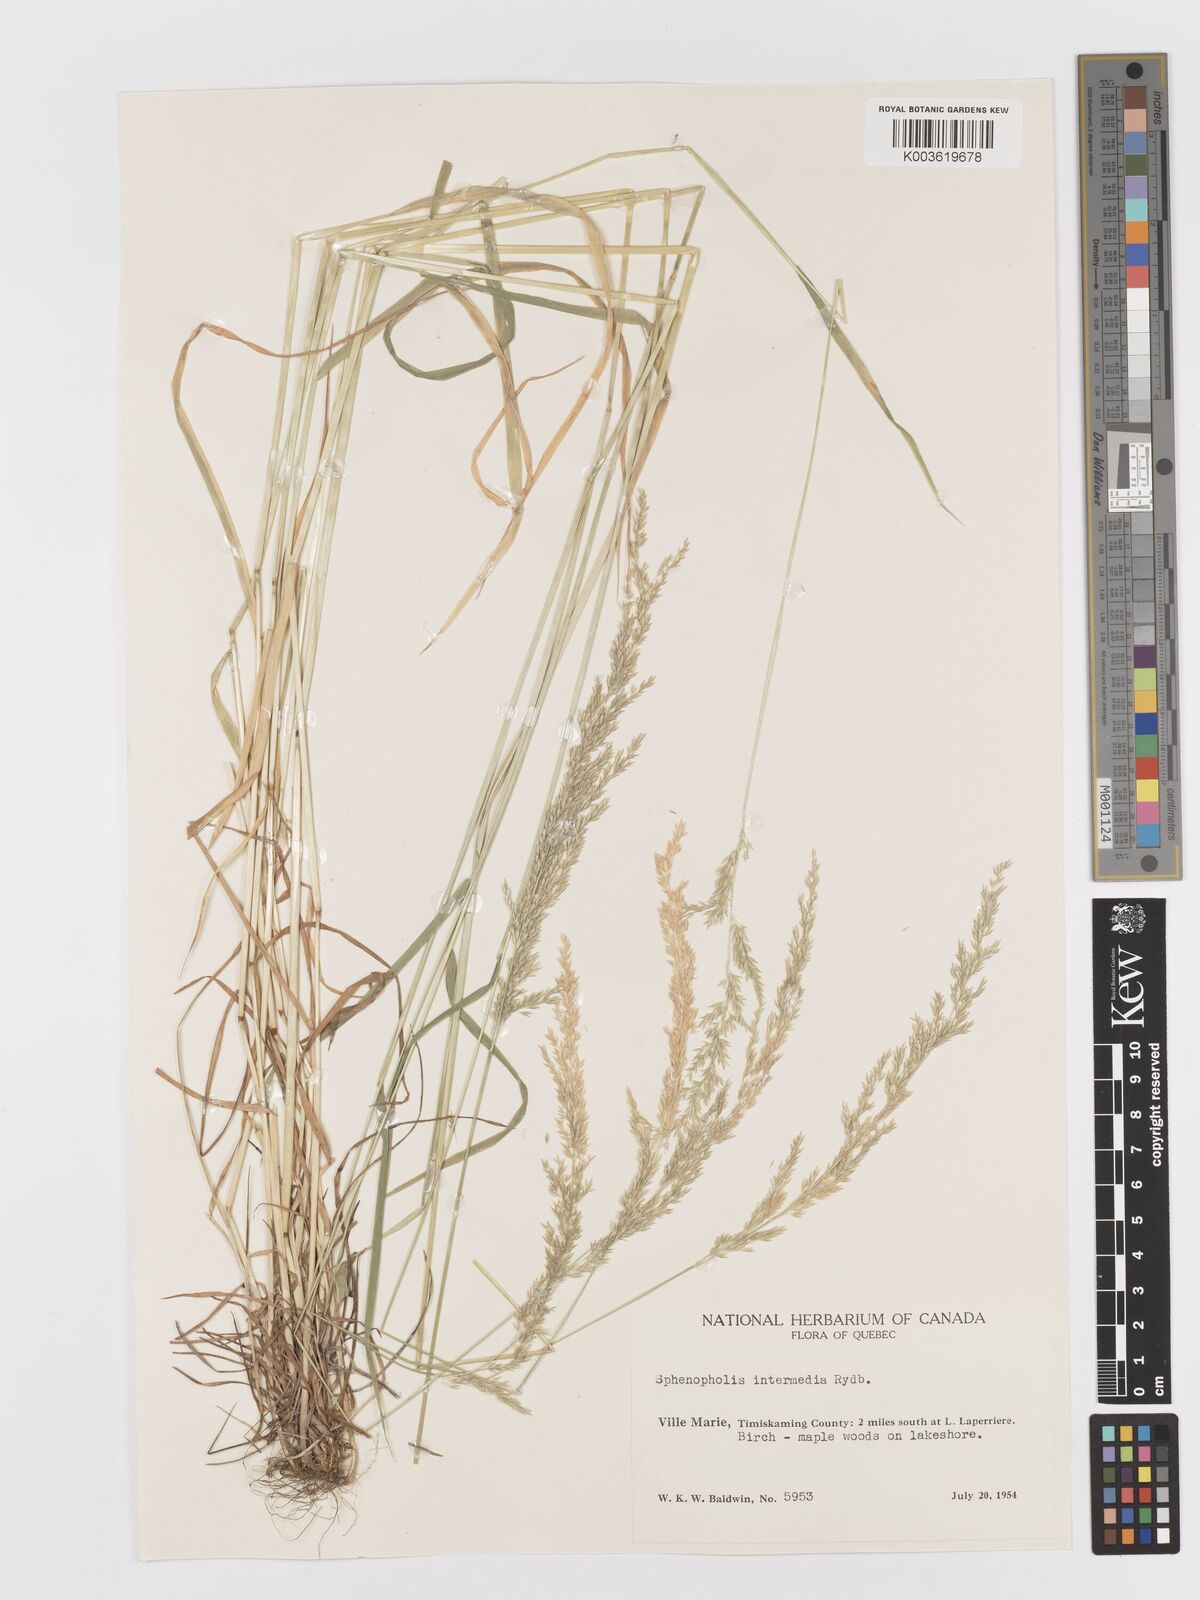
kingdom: Plantae
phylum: Tracheophyta
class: Liliopsida
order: Poales
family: Poaceae
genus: Sphenopholis
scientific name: Sphenopholis obtusata
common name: Prairie grass
